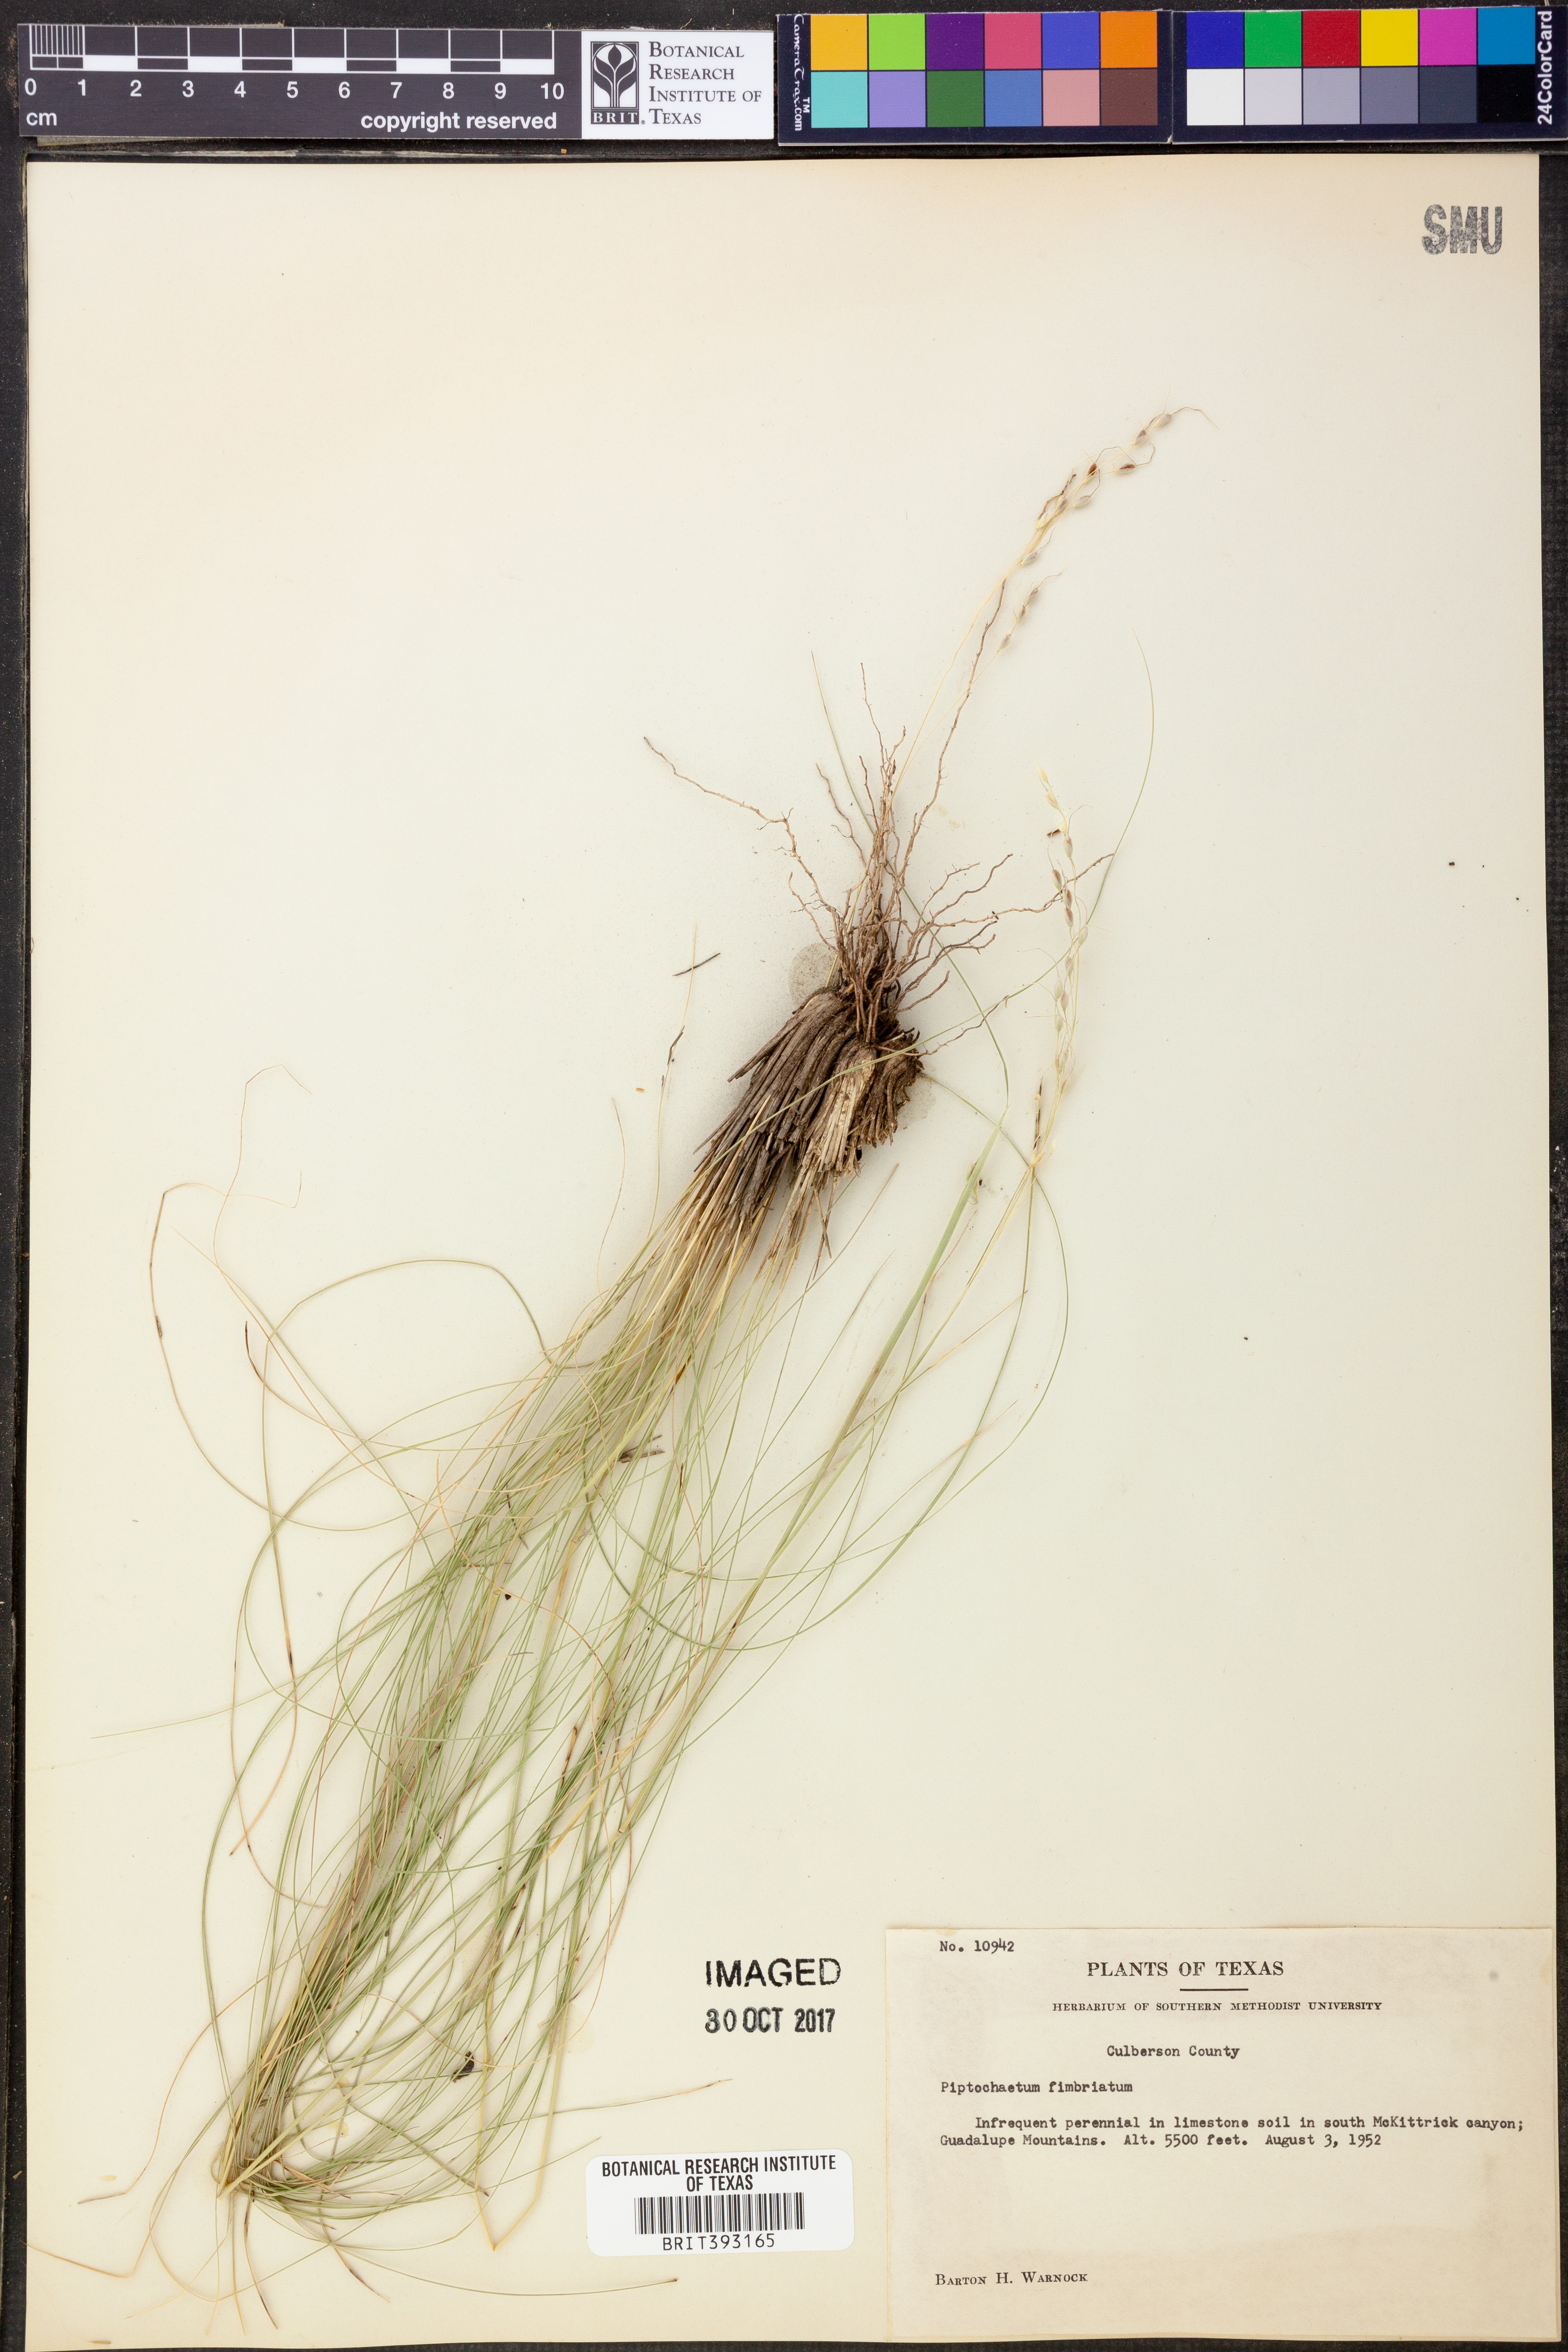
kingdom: Plantae
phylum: Tracheophyta
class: Liliopsida
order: Poales
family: Poaceae
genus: Piptochaetium
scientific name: Piptochaetium fimbriatum
